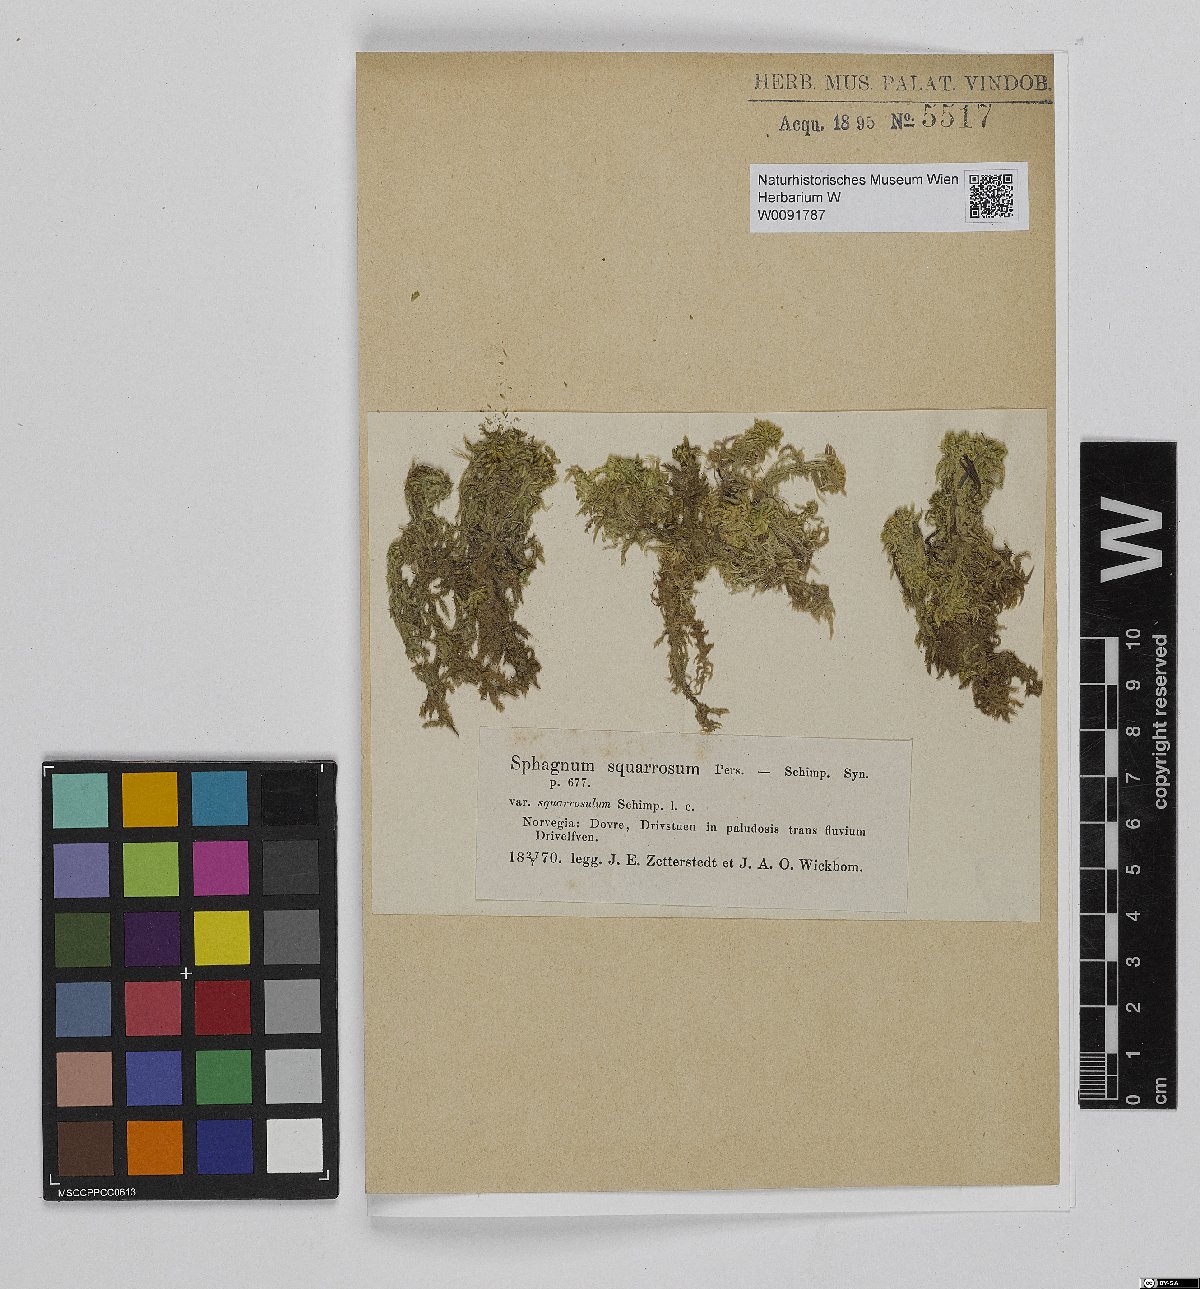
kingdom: Plantae
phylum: Bryophyta
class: Sphagnopsida
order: Sphagnales
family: Sphagnaceae
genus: Sphagnum
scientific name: Sphagnum squarrosum
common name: Shaggy peat moss
